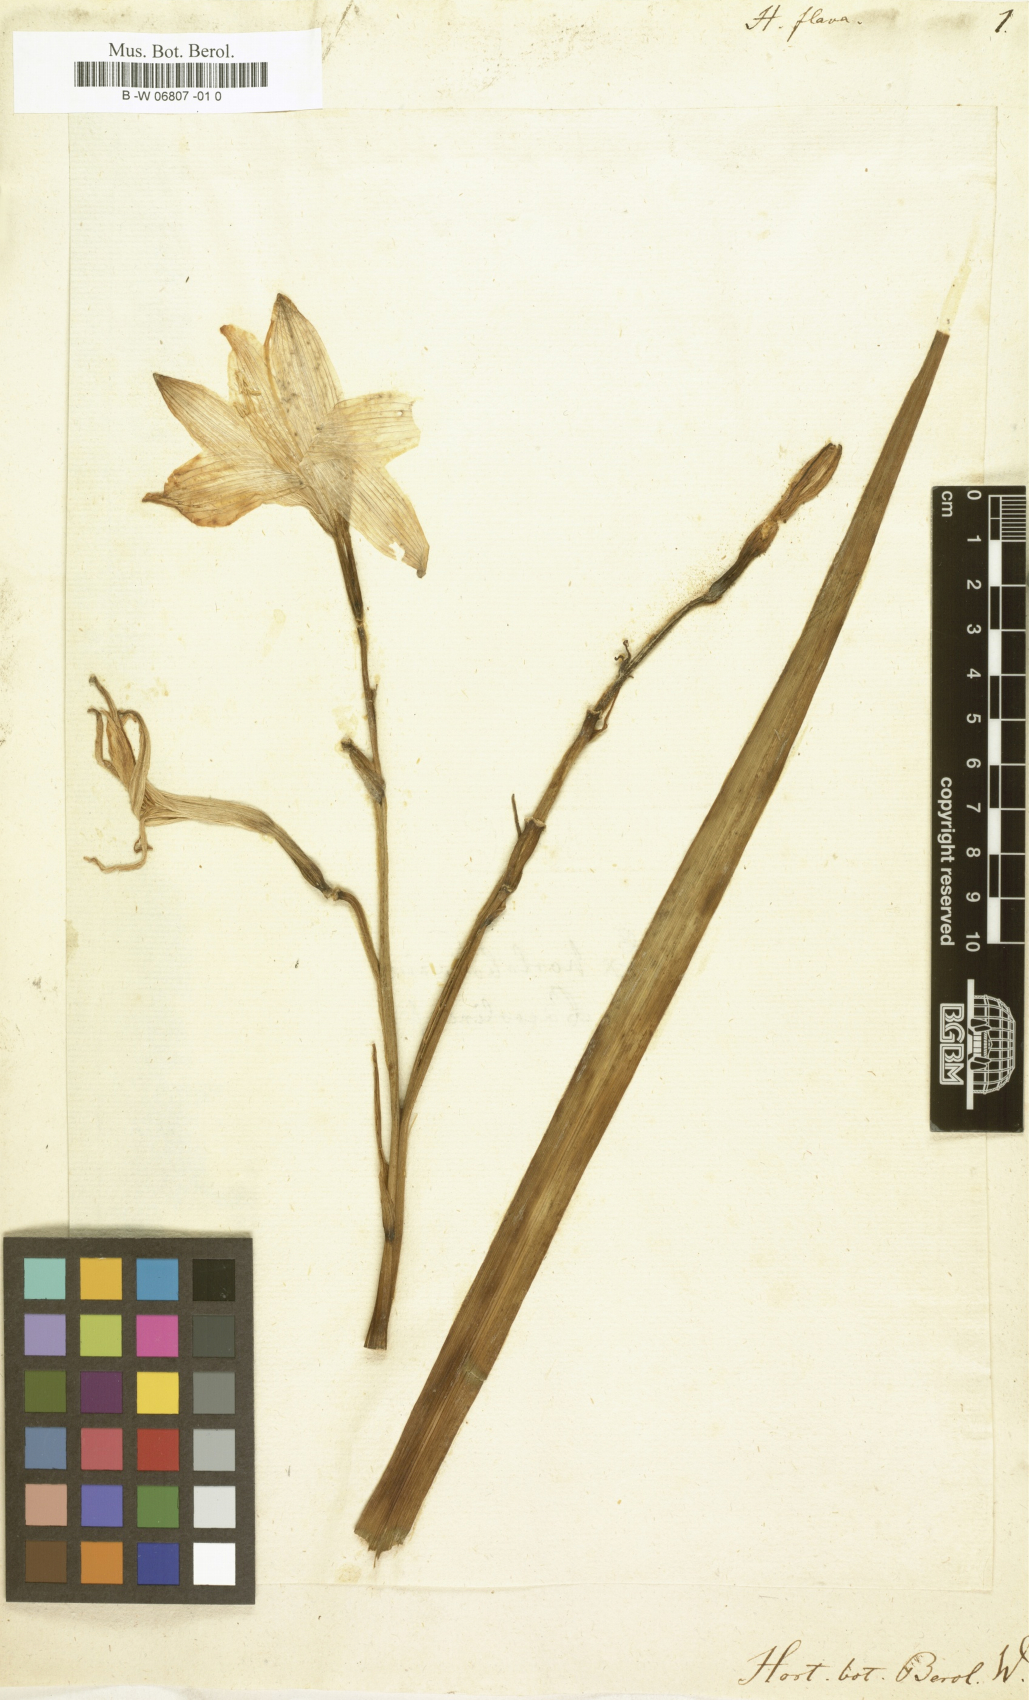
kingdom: Plantae
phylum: Tracheophyta
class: Liliopsida
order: Asparagales
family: Asphodelaceae
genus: Hemerocallis
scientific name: Hemerocallis
